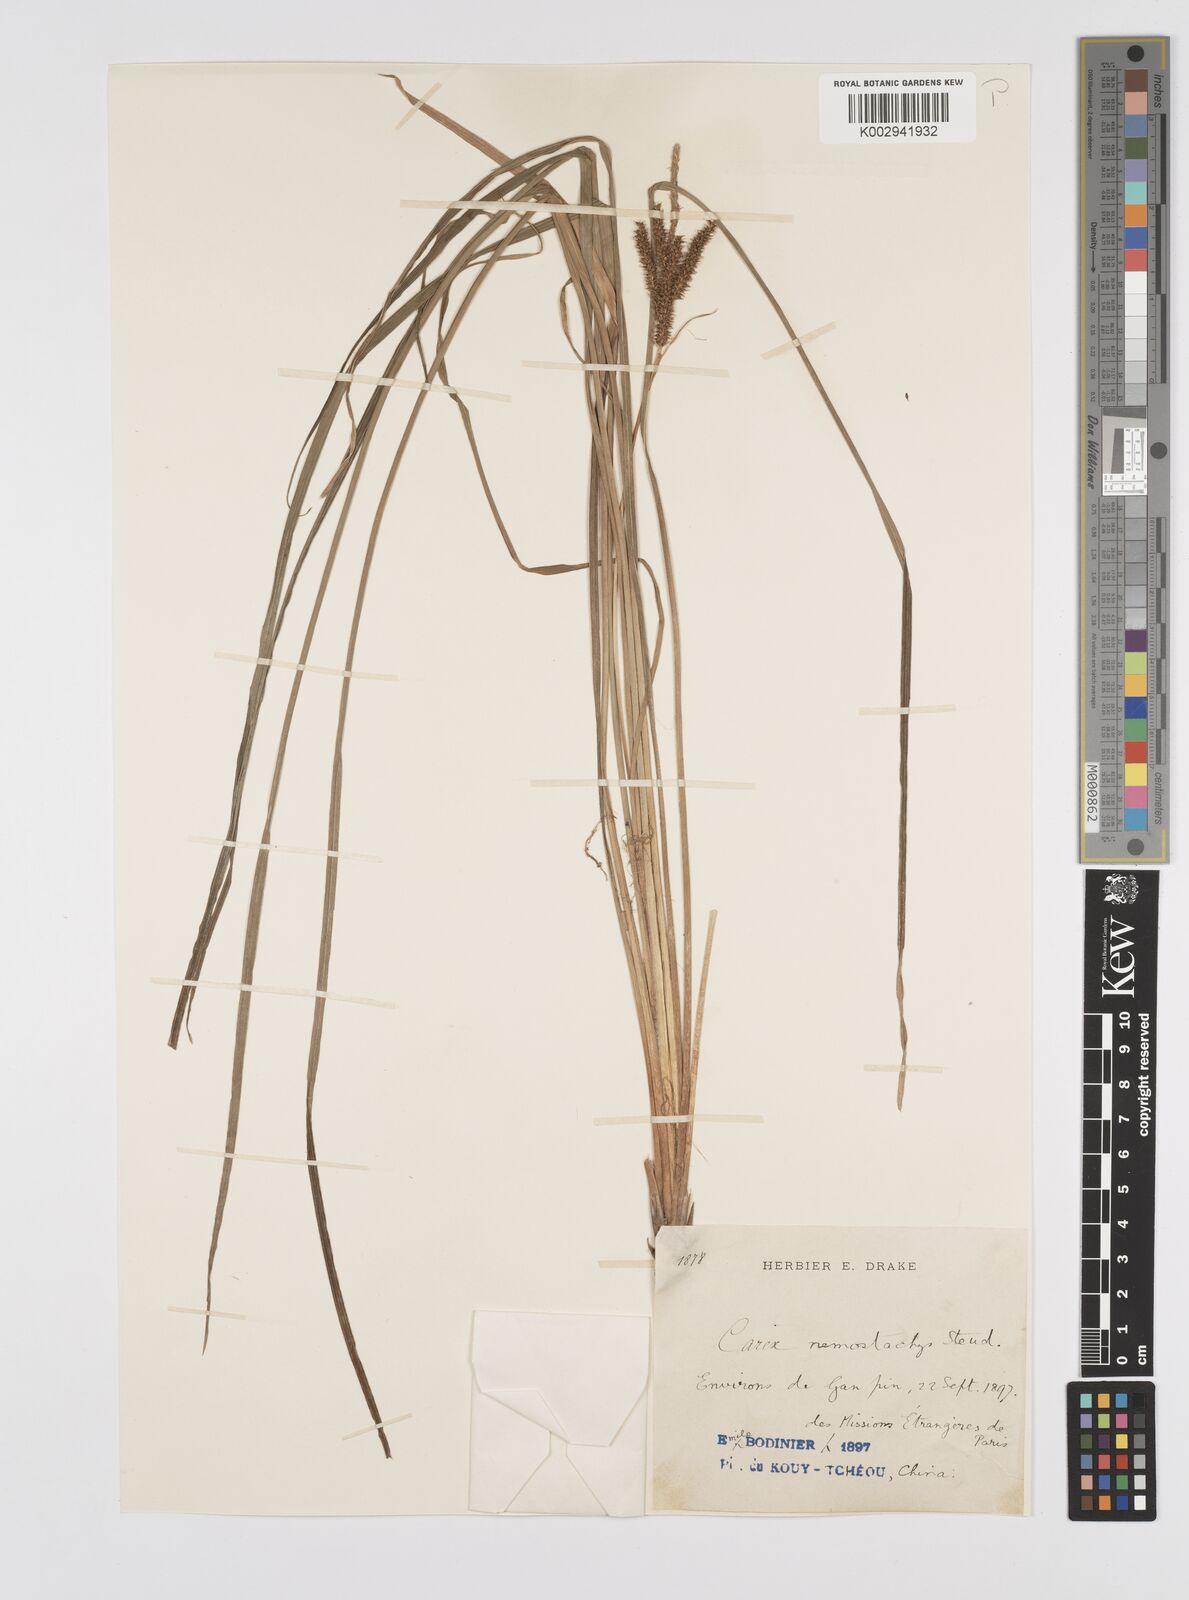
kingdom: Plantae
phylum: Tracheophyta
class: Liliopsida
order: Poales
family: Cyperaceae
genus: Carex
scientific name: Carex tumida
